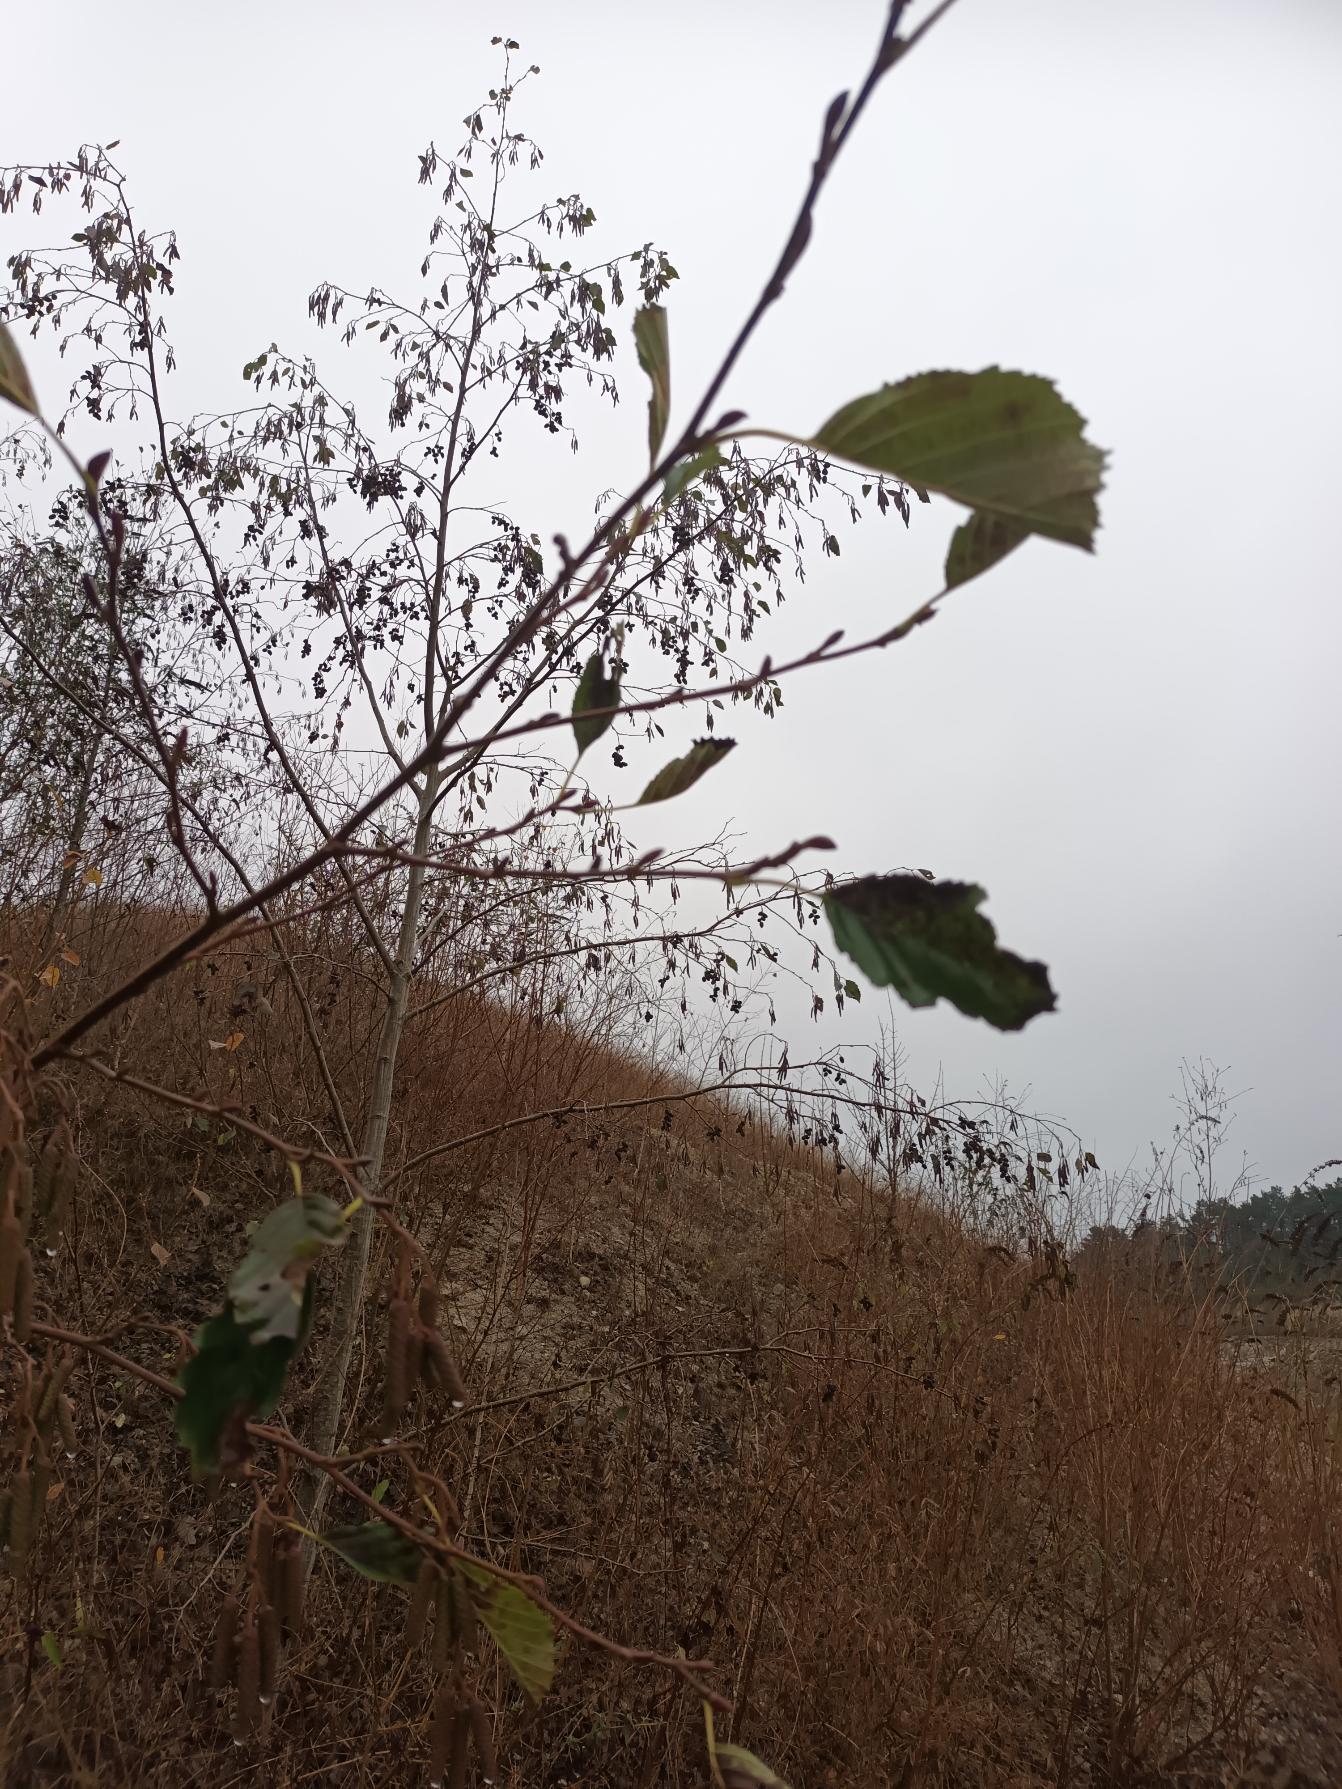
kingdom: Plantae
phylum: Tracheophyta
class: Magnoliopsida
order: Fagales
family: Betulaceae
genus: Alnus
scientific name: Alnus glutinosa
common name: Rød-el
